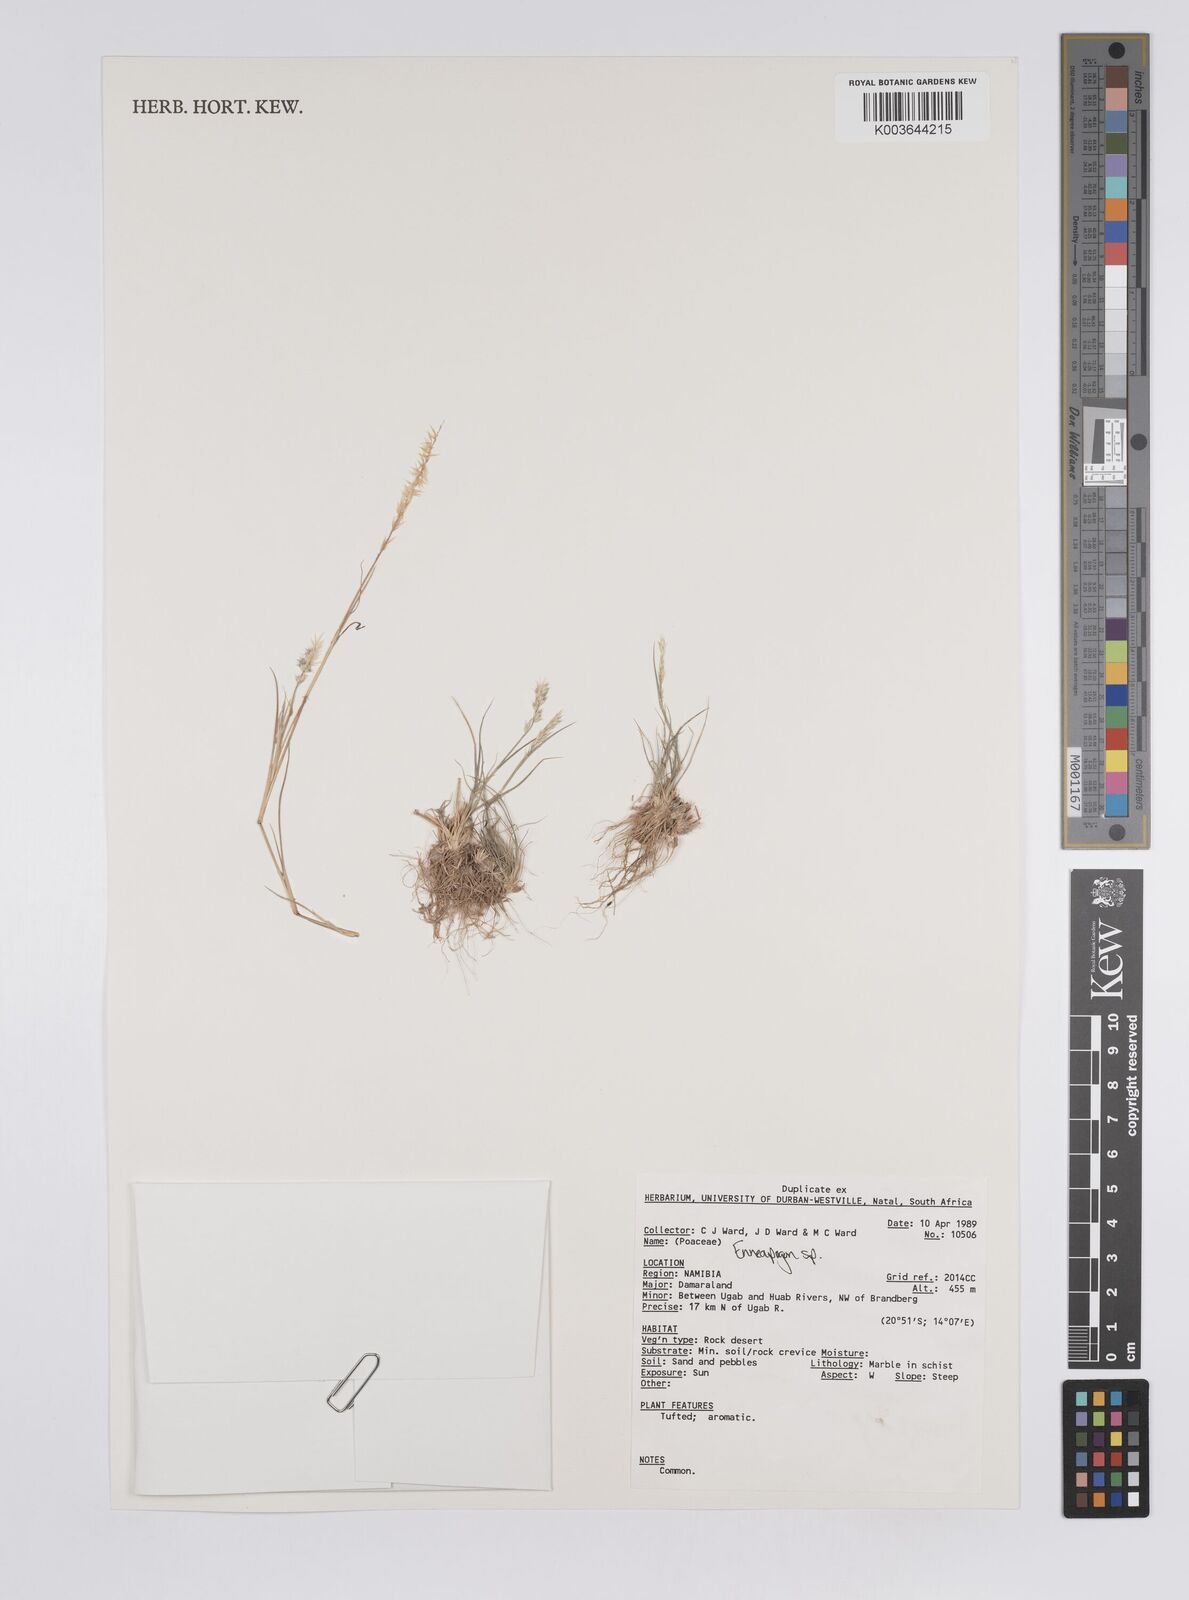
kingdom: Plantae
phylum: Tracheophyta
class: Liliopsida
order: Poales
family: Poaceae
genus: Enneapogon
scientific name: Enneapogon
